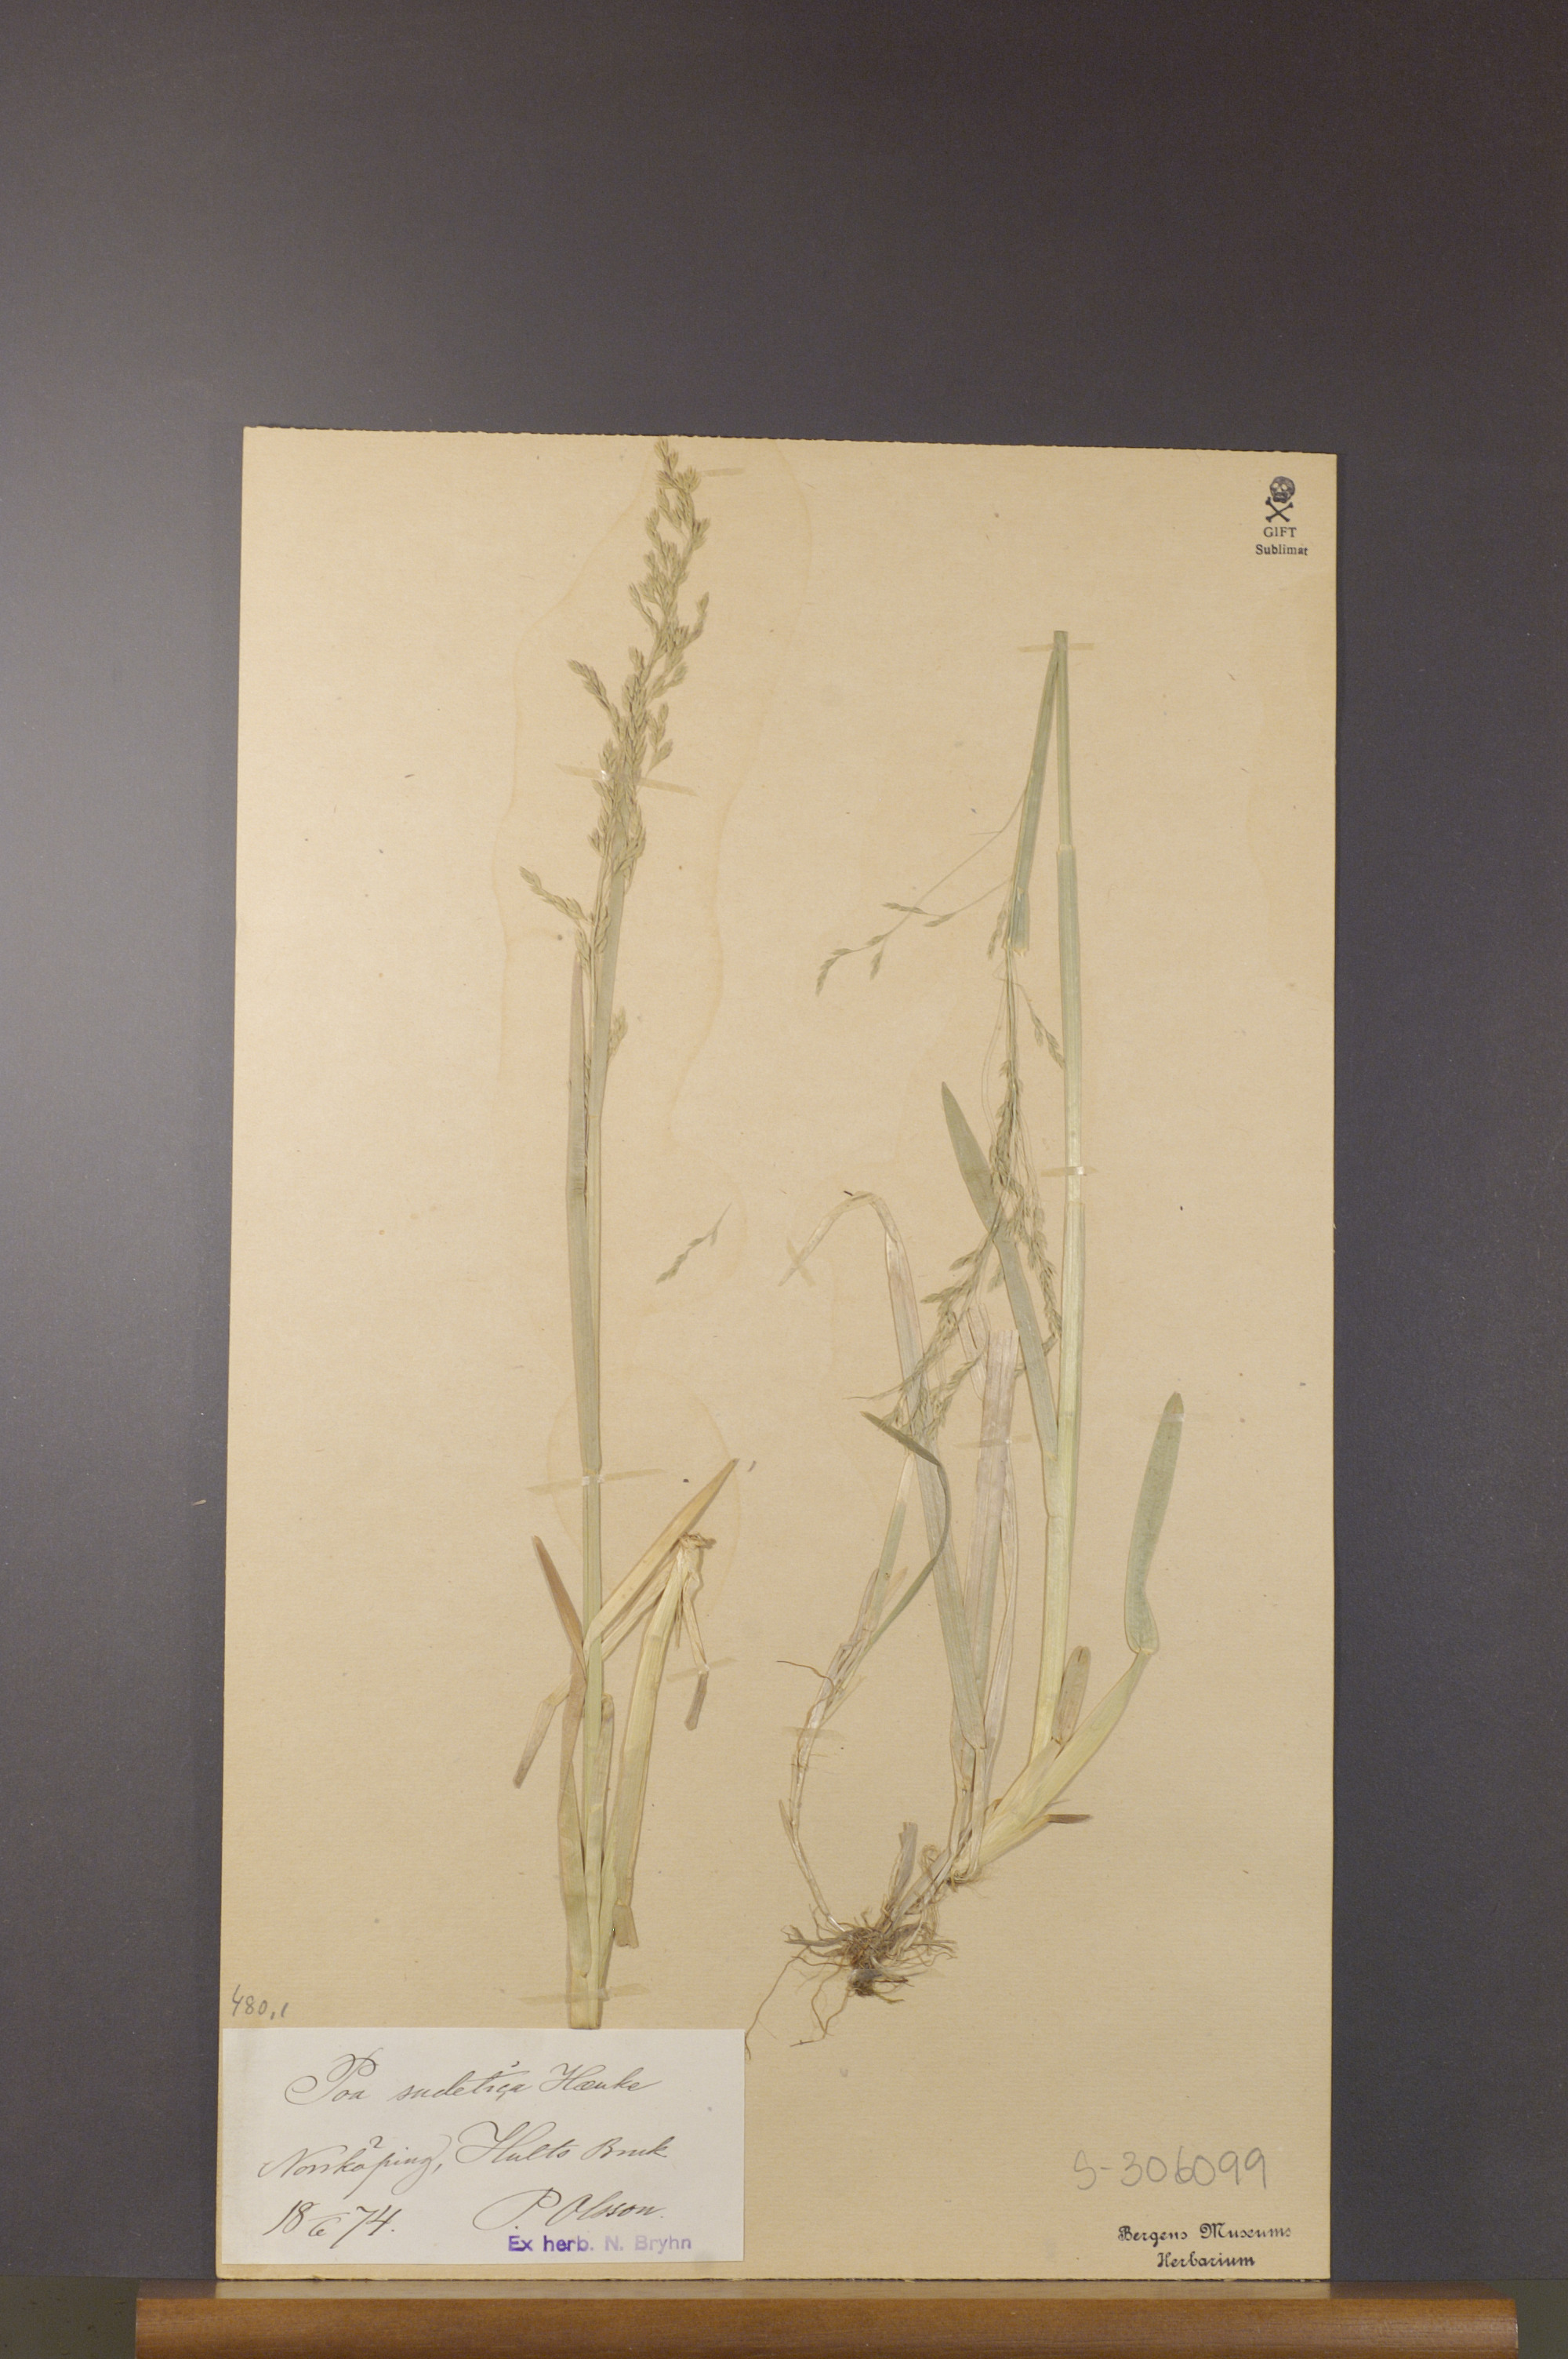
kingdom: Plantae
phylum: Tracheophyta
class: Liliopsida
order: Poales
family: Poaceae
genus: Poa
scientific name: Poa chaixii
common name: Broad-leaved meadow-grass
